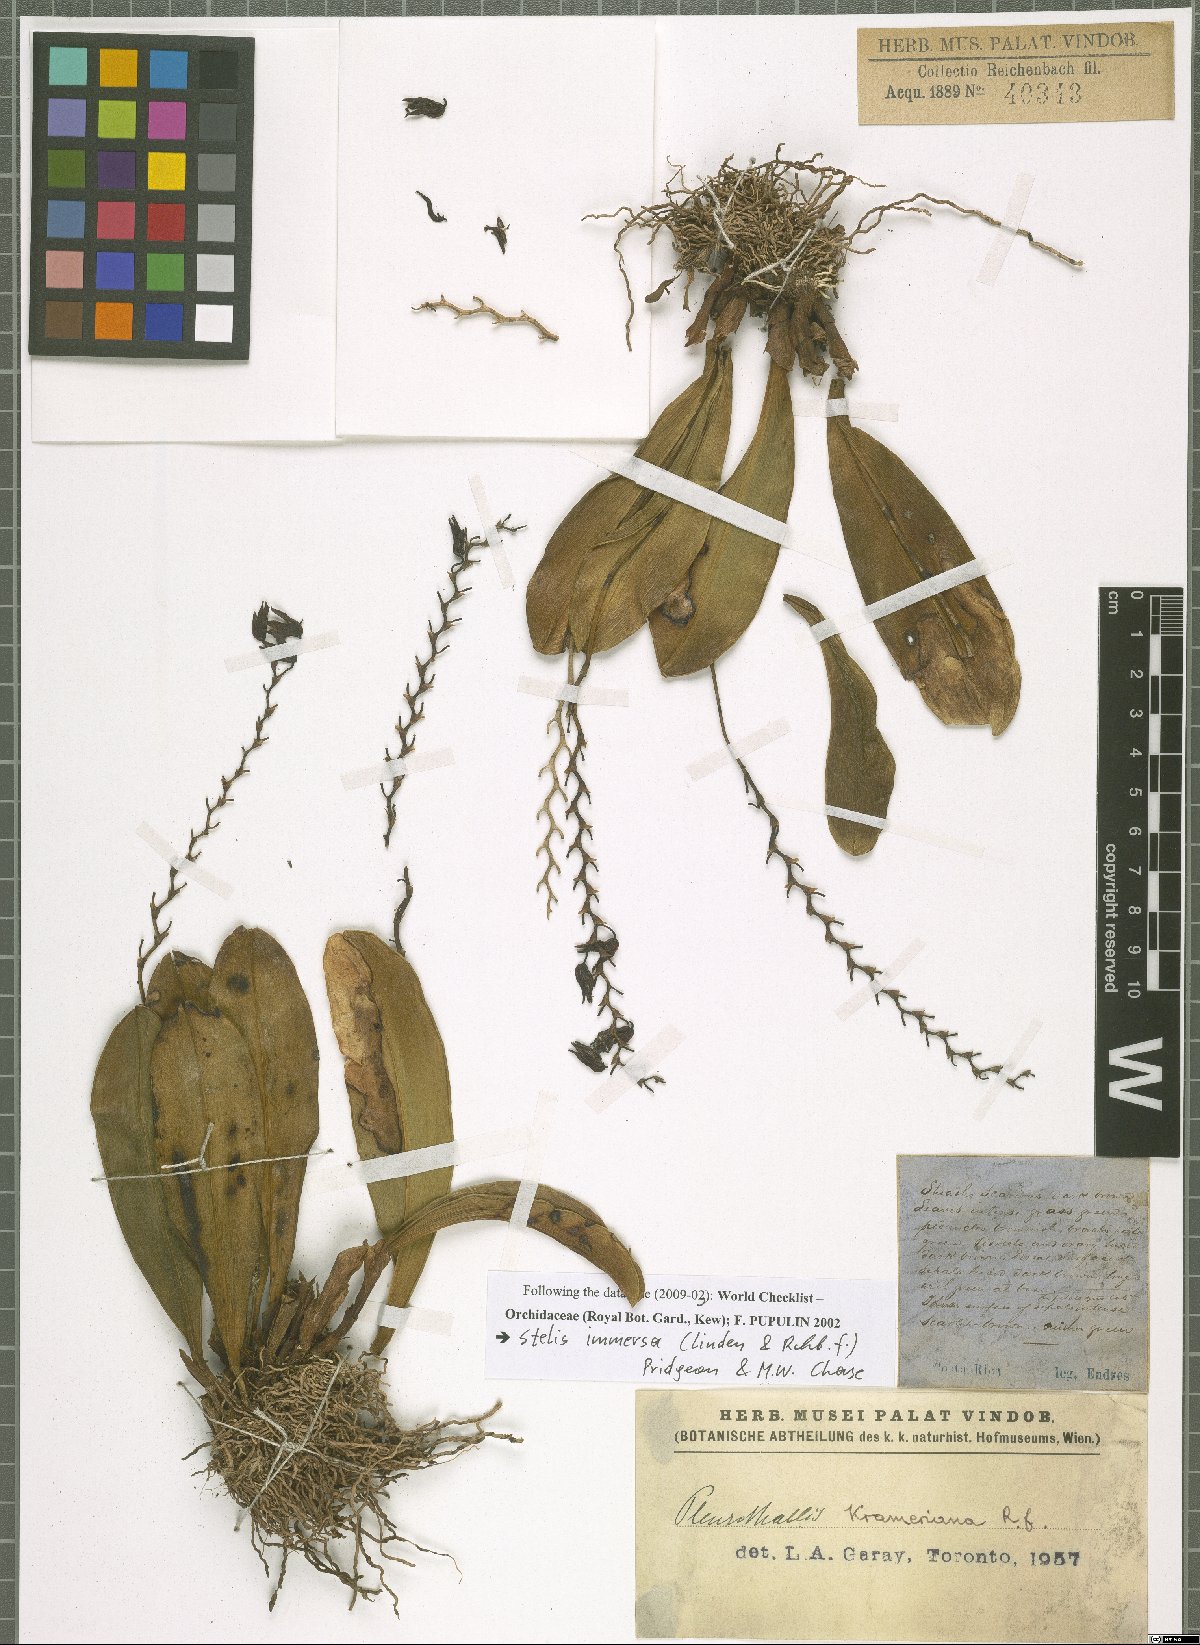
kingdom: Plantae
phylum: Tracheophyta
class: Liliopsida
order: Asparagales
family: Orchidaceae
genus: Stelis
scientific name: Stelis immersa
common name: Sunken pleurothallis
